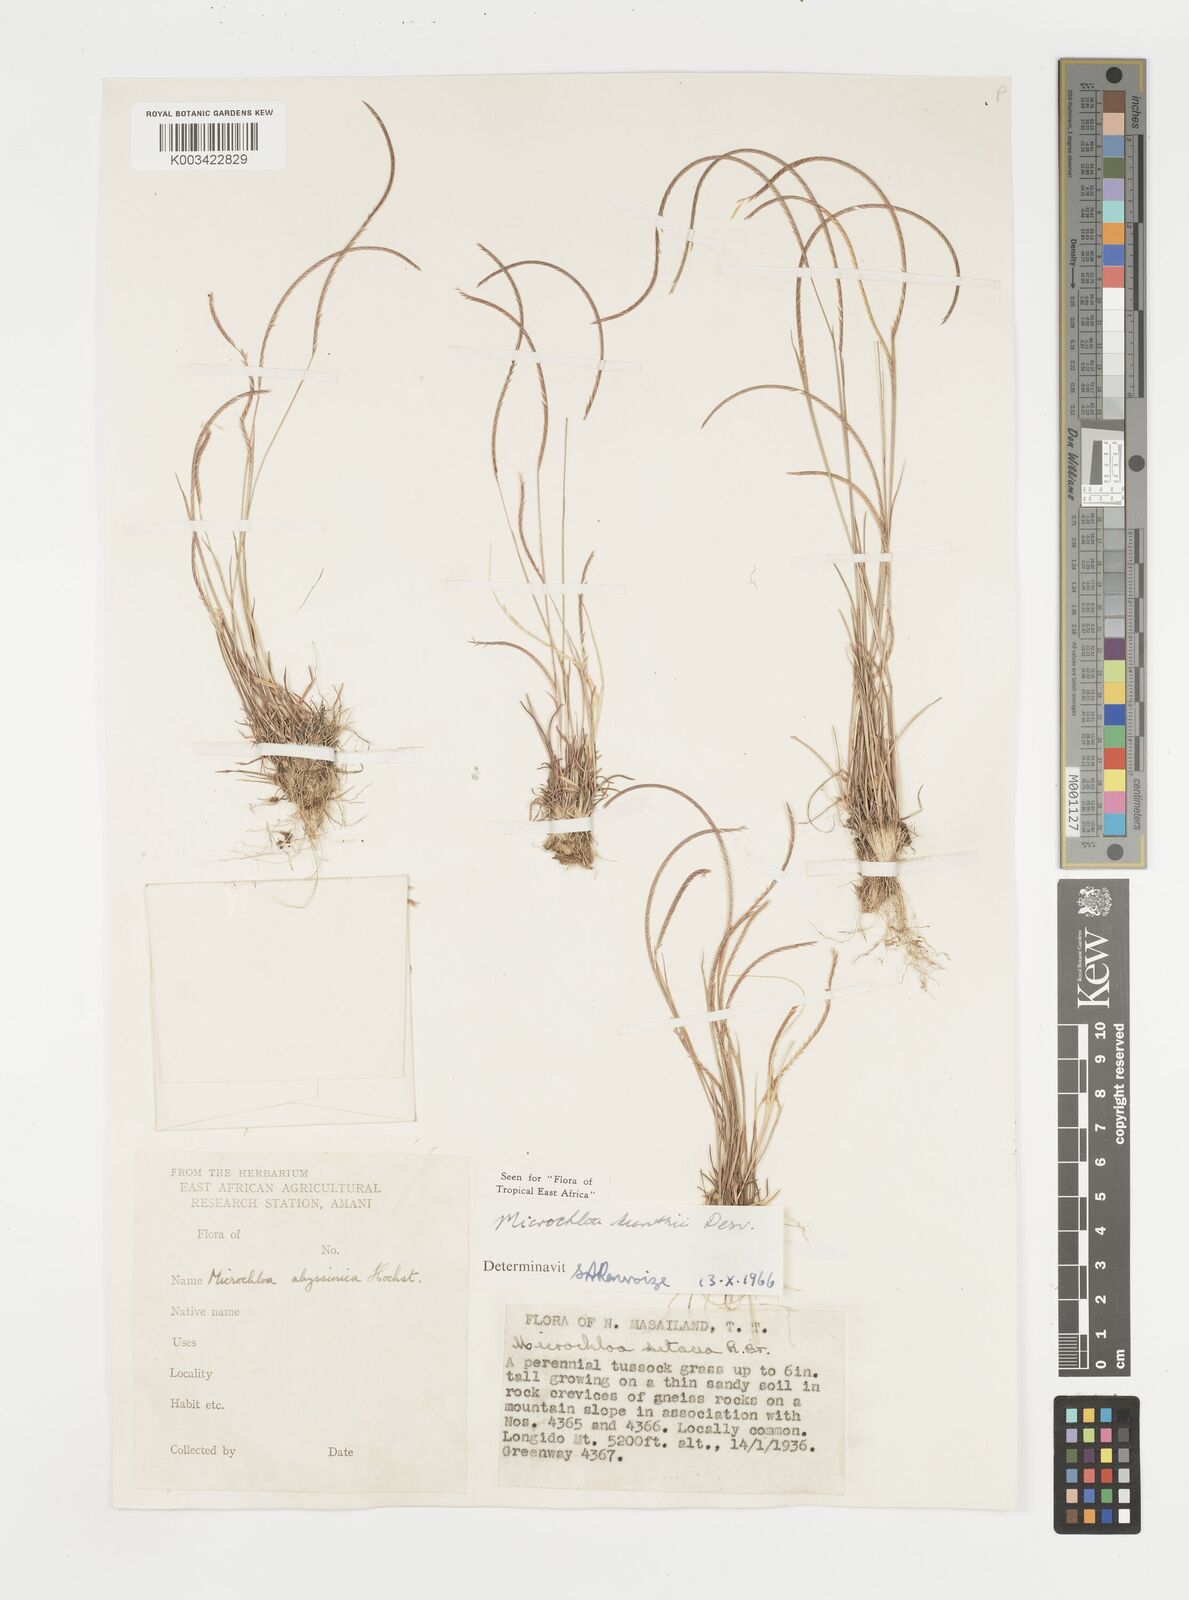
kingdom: Plantae
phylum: Tracheophyta
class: Liliopsida
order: Poales
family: Poaceae
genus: Microchloa
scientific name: Microchloa kunthii
